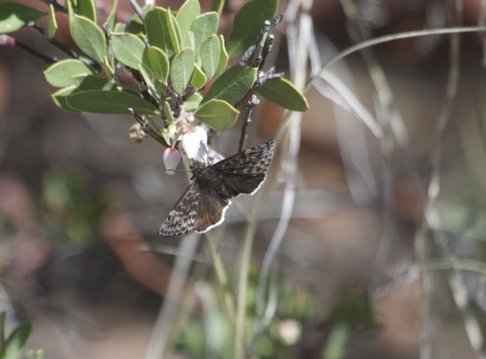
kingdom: Animalia
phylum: Arthropoda
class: Insecta
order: Lepidoptera
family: Hesperiidae
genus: Erynnis
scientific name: Erynnis tristis
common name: Mournful Duskywing
